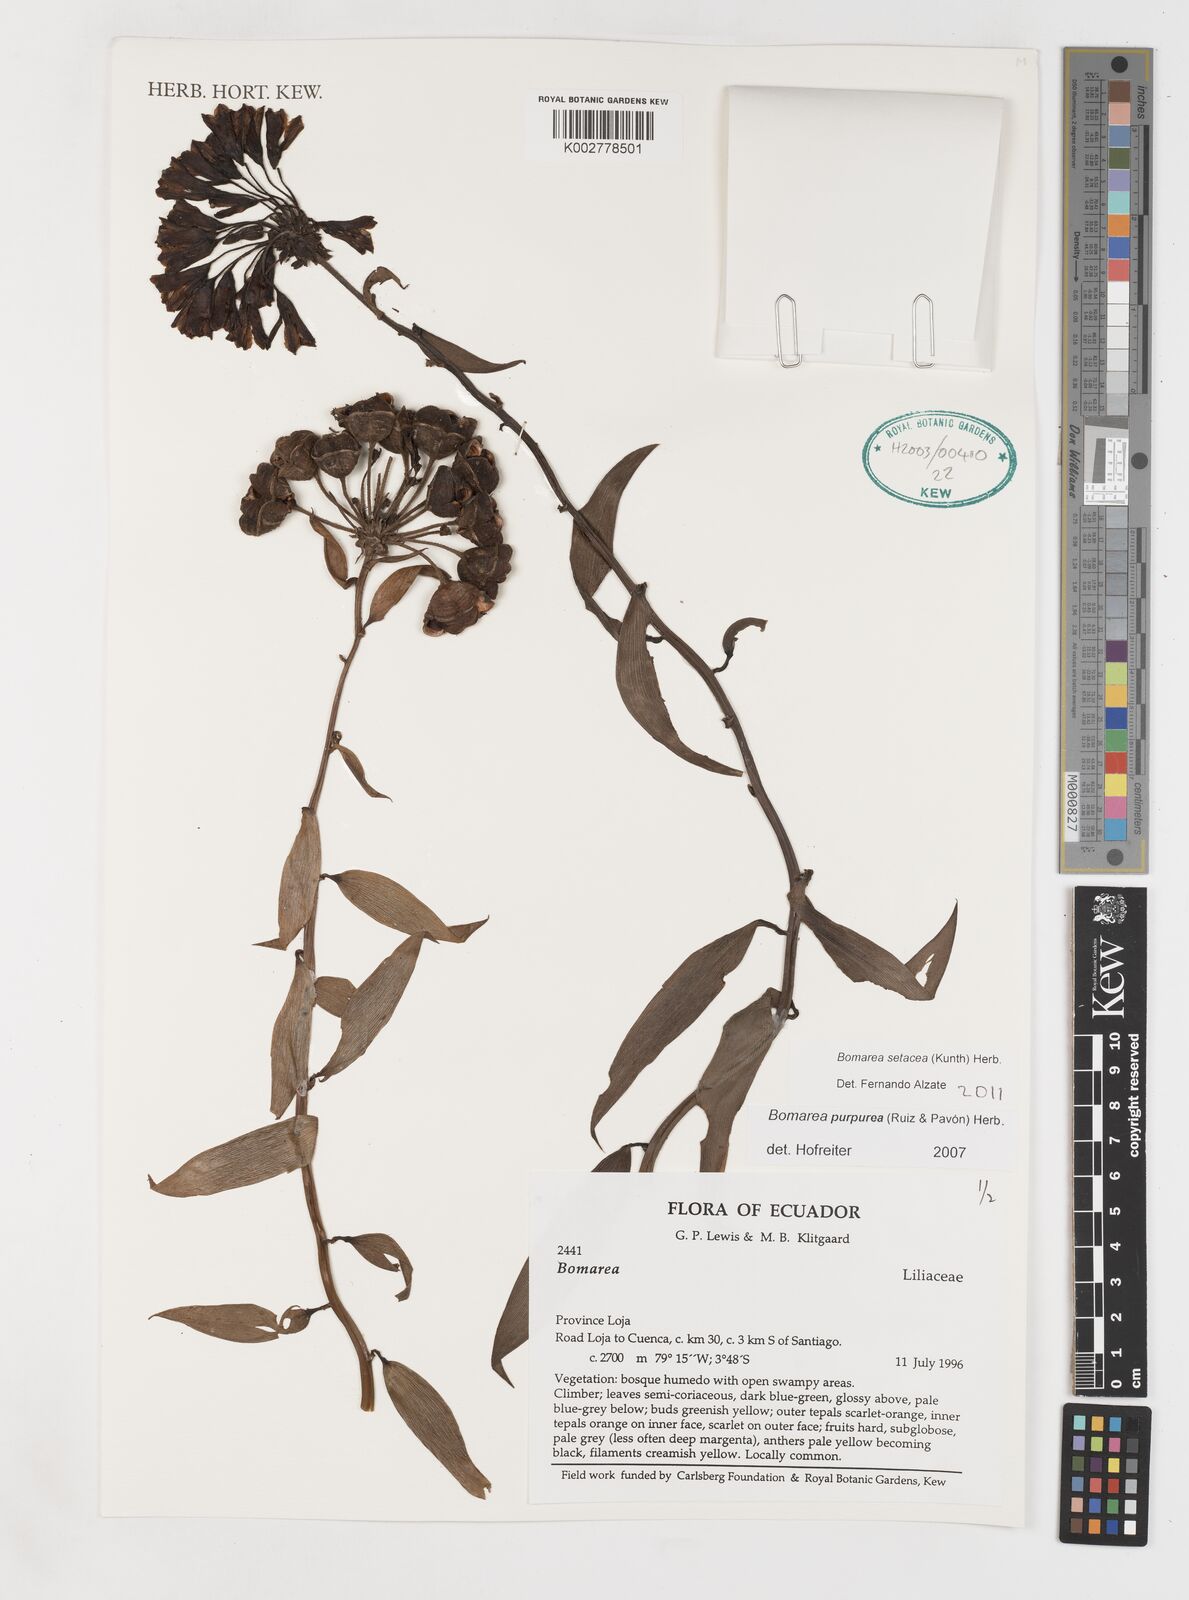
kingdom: Plantae
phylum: Tracheophyta
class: Liliopsida
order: Liliales
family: Alstroemeriaceae
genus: Bomarea
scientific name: Bomarea setacea
